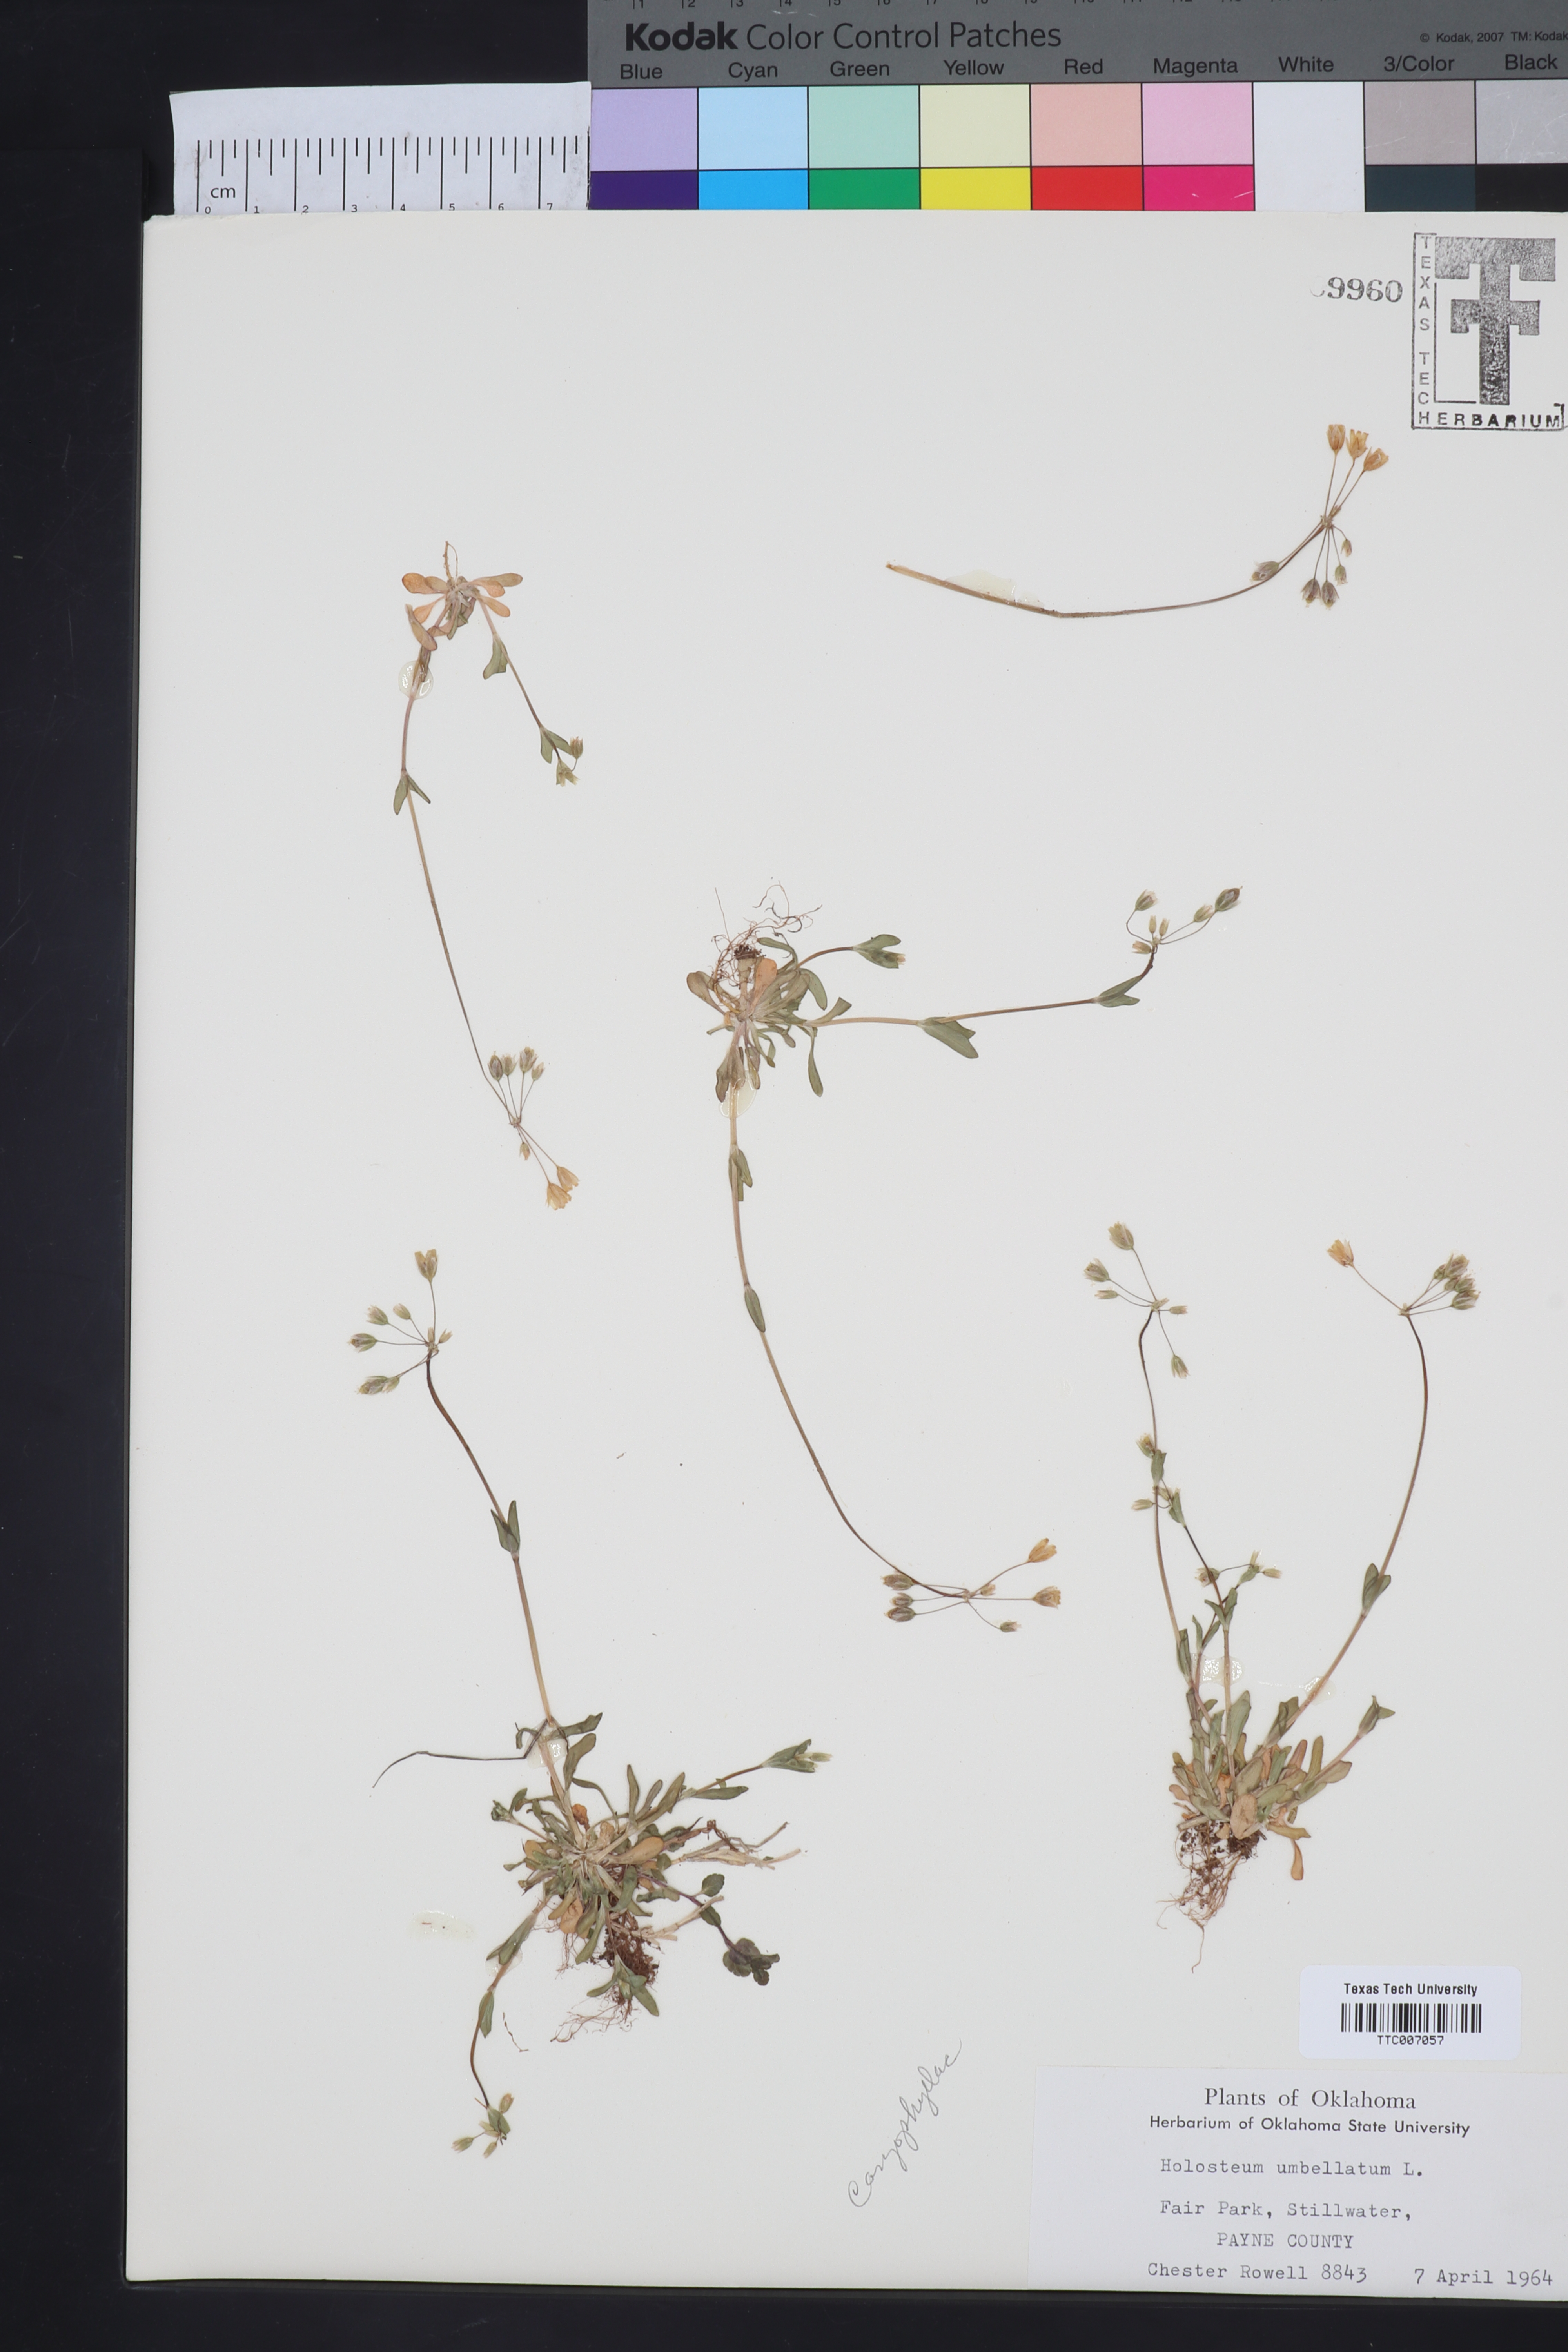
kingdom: Plantae
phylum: Tracheophyta
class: Magnoliopsida
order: Caryophyllales
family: Caryophyllaceae
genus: Holosteum
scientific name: Holosteum umbellatum
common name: Jagged chickweed
